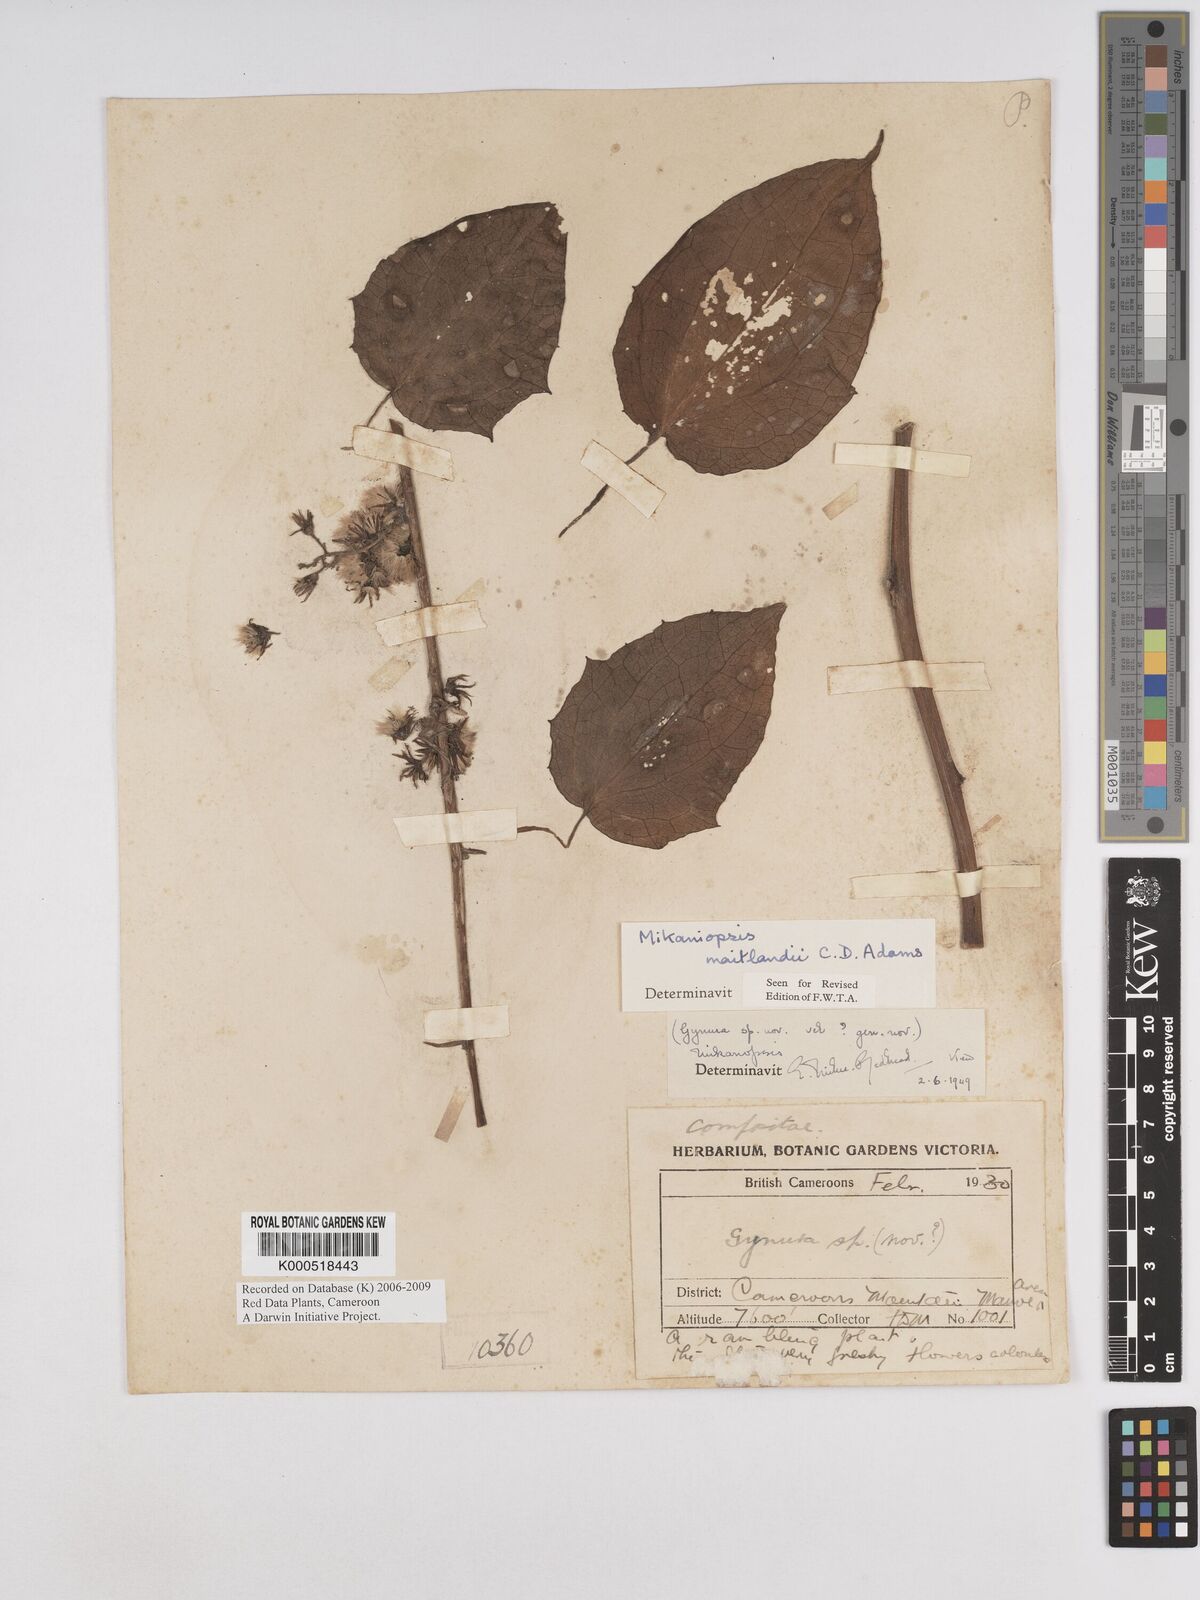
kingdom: Plantae
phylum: Tracheophyta
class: Magnoliopsida
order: Asterales
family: Asteraceae
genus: Mikaniopsis
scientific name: Mikaniopsis maitlandii
